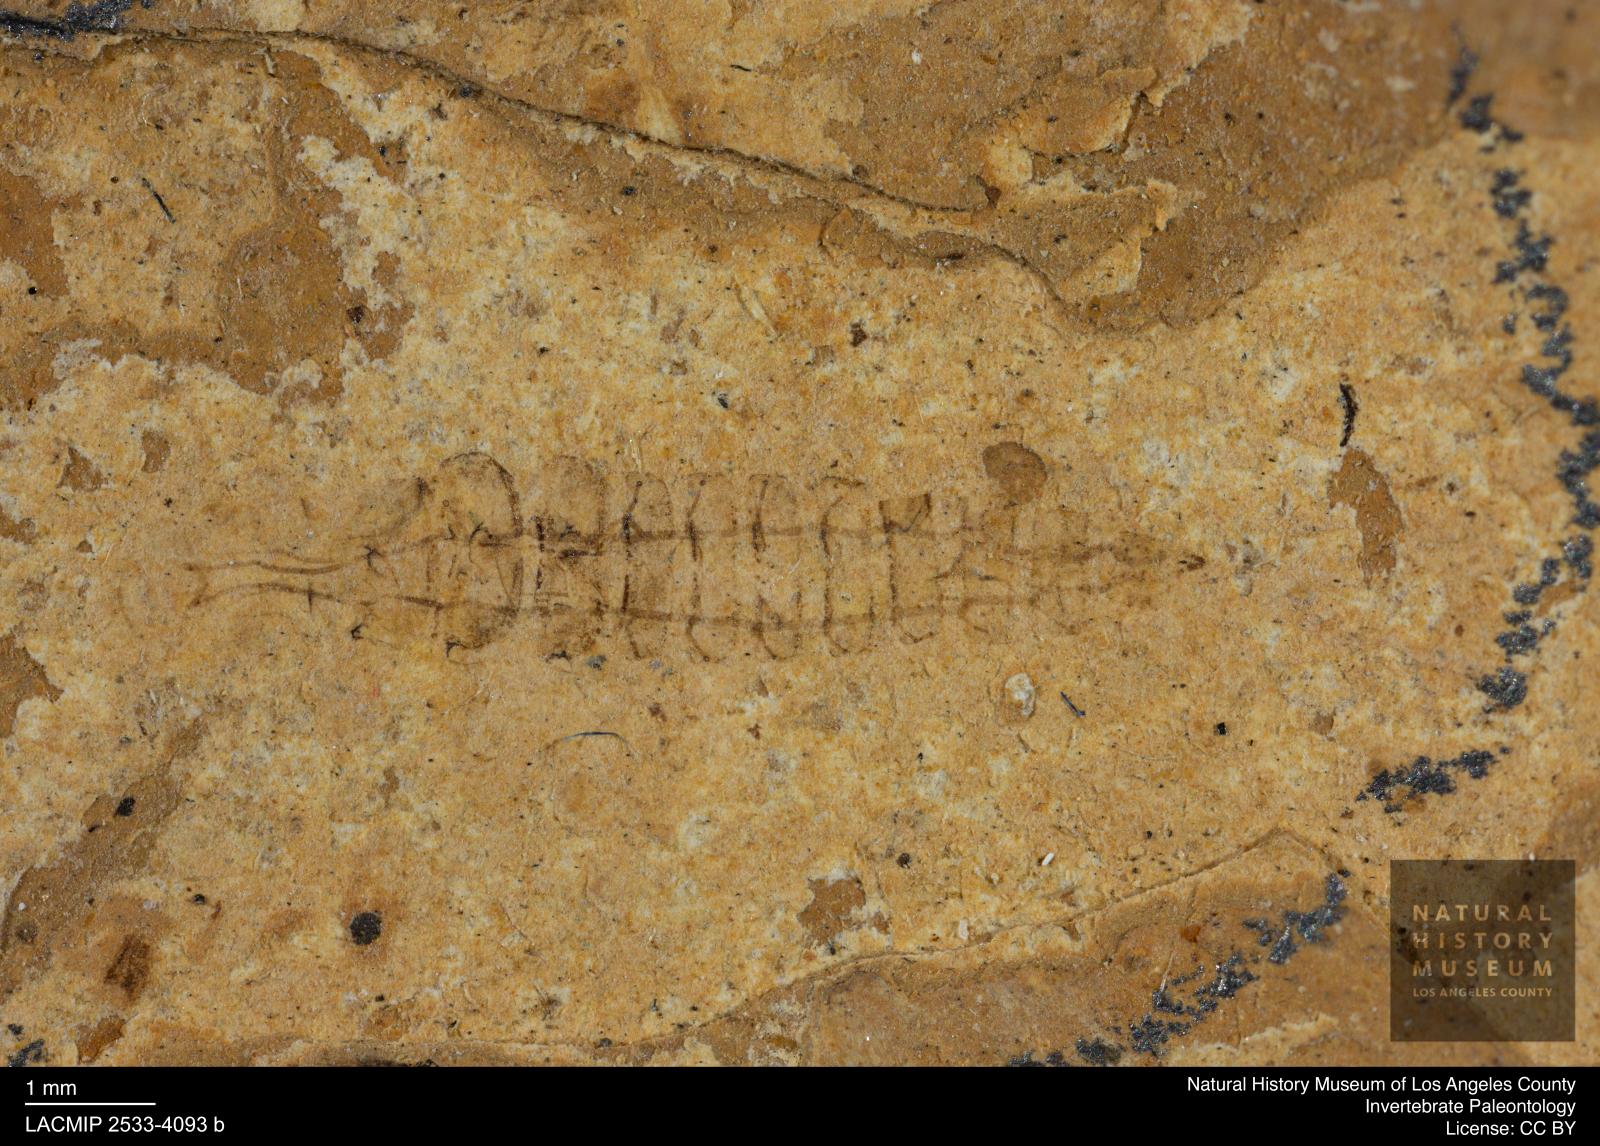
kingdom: Animalia
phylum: Arthropoda
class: Insecta
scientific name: Insecta
